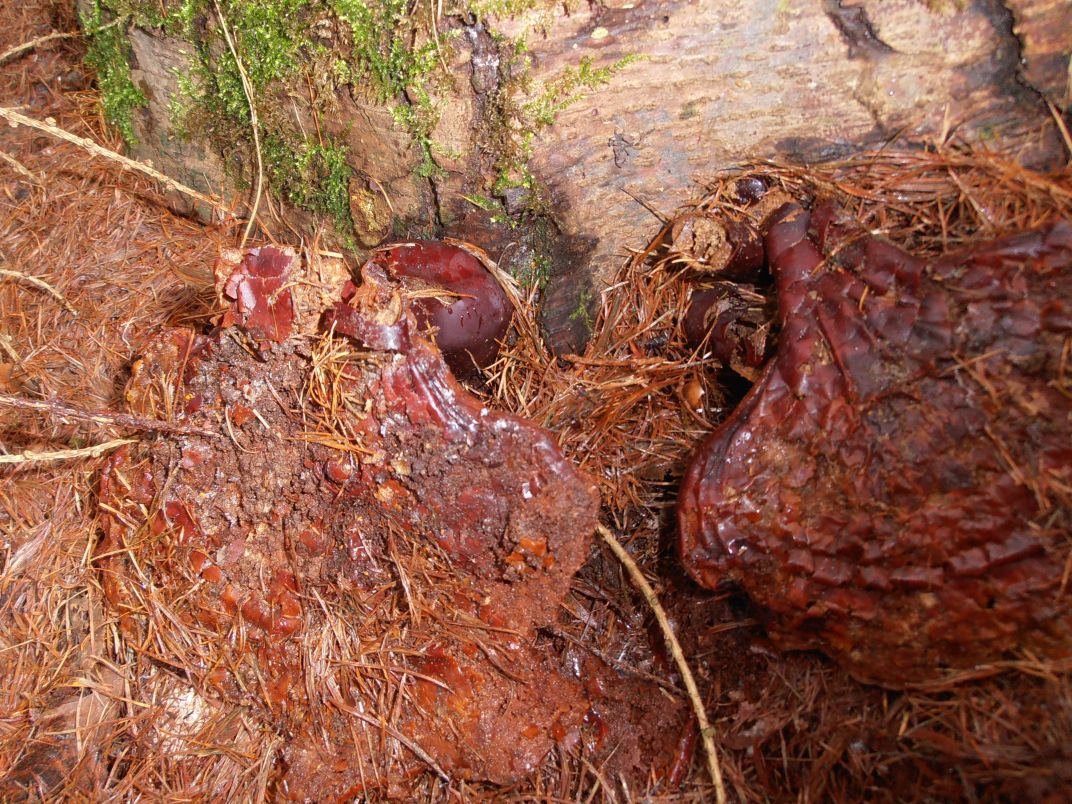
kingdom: Fungi
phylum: Basidiomycota
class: Agaricomycetes
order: Polyporales
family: Polyporaceae
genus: Ganoderma
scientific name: Ganoderma lucidum
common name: skinnende lakporesvamp
